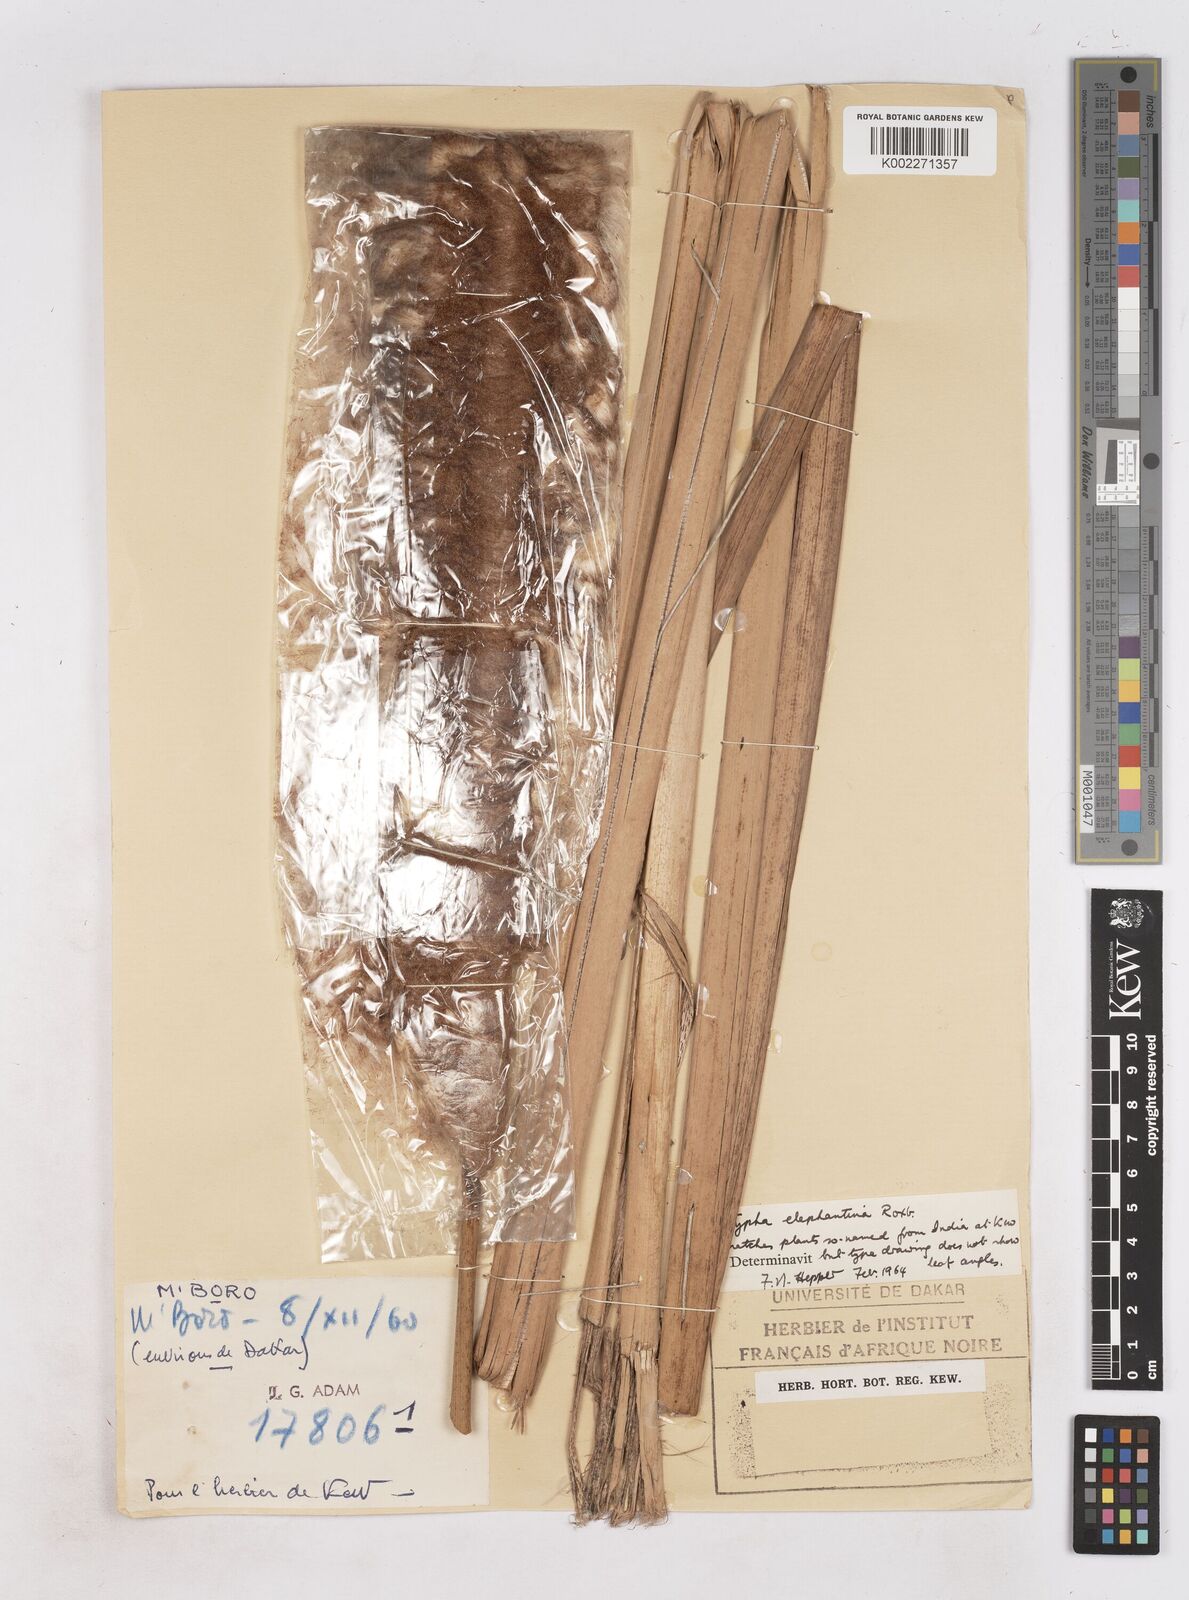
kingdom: Plantae
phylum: Tracheophyta
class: Liliopsida
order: Poales
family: Typhaceae
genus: Typha
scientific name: Typha elephantina
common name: Indian reed-grass
